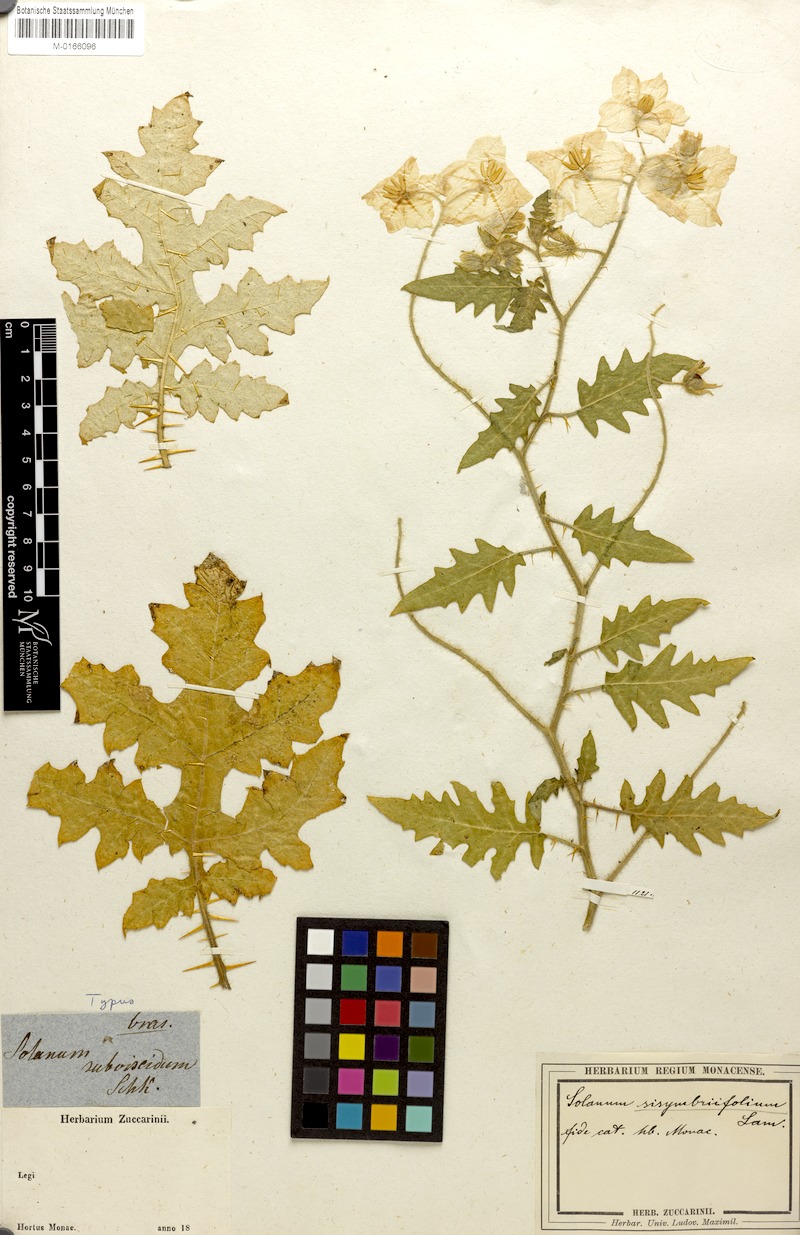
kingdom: Plantae
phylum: Tracheophyta
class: Magnoliopsida
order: Solanales
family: Solanaceae
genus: Solanum
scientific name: Solanum sisymbriifolium
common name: Red buffalo-bur
